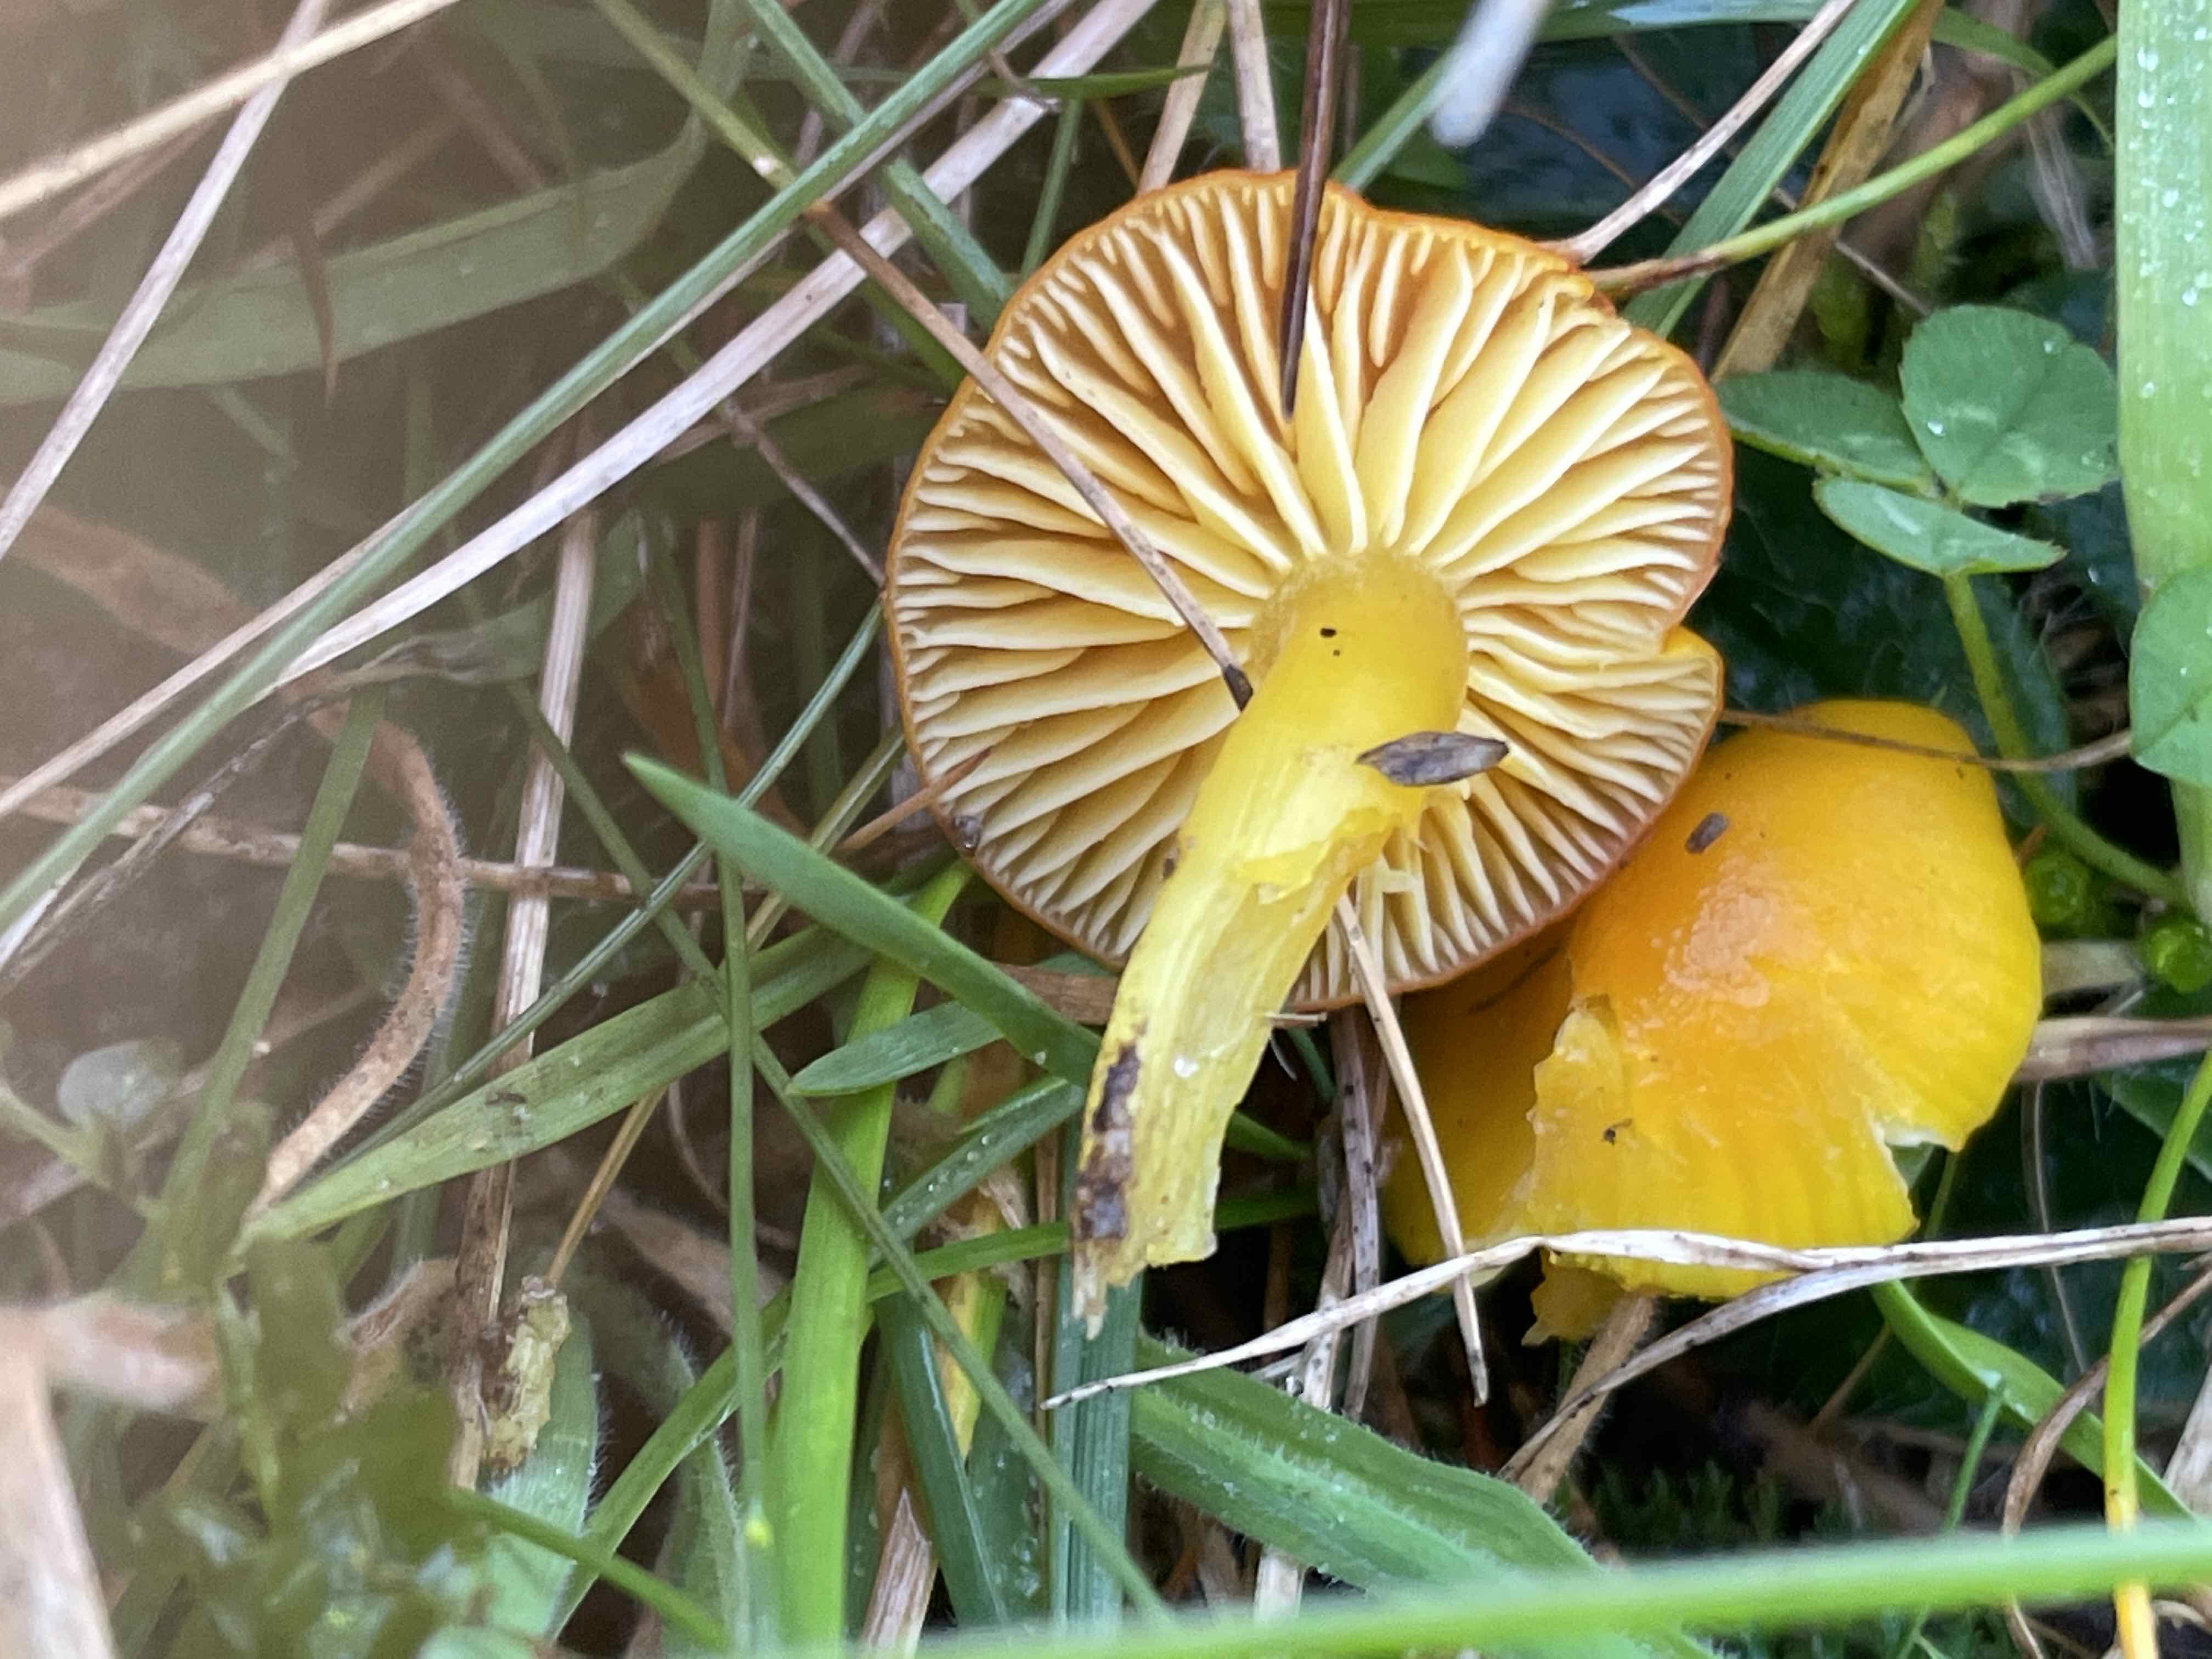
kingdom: Fungi
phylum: Basidiomycota
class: Agaricomycetes
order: Agaricales
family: Hygrophoraceae
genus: Hygrocybe
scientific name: Hygrocybe ceracea
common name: voksgul vokshat
